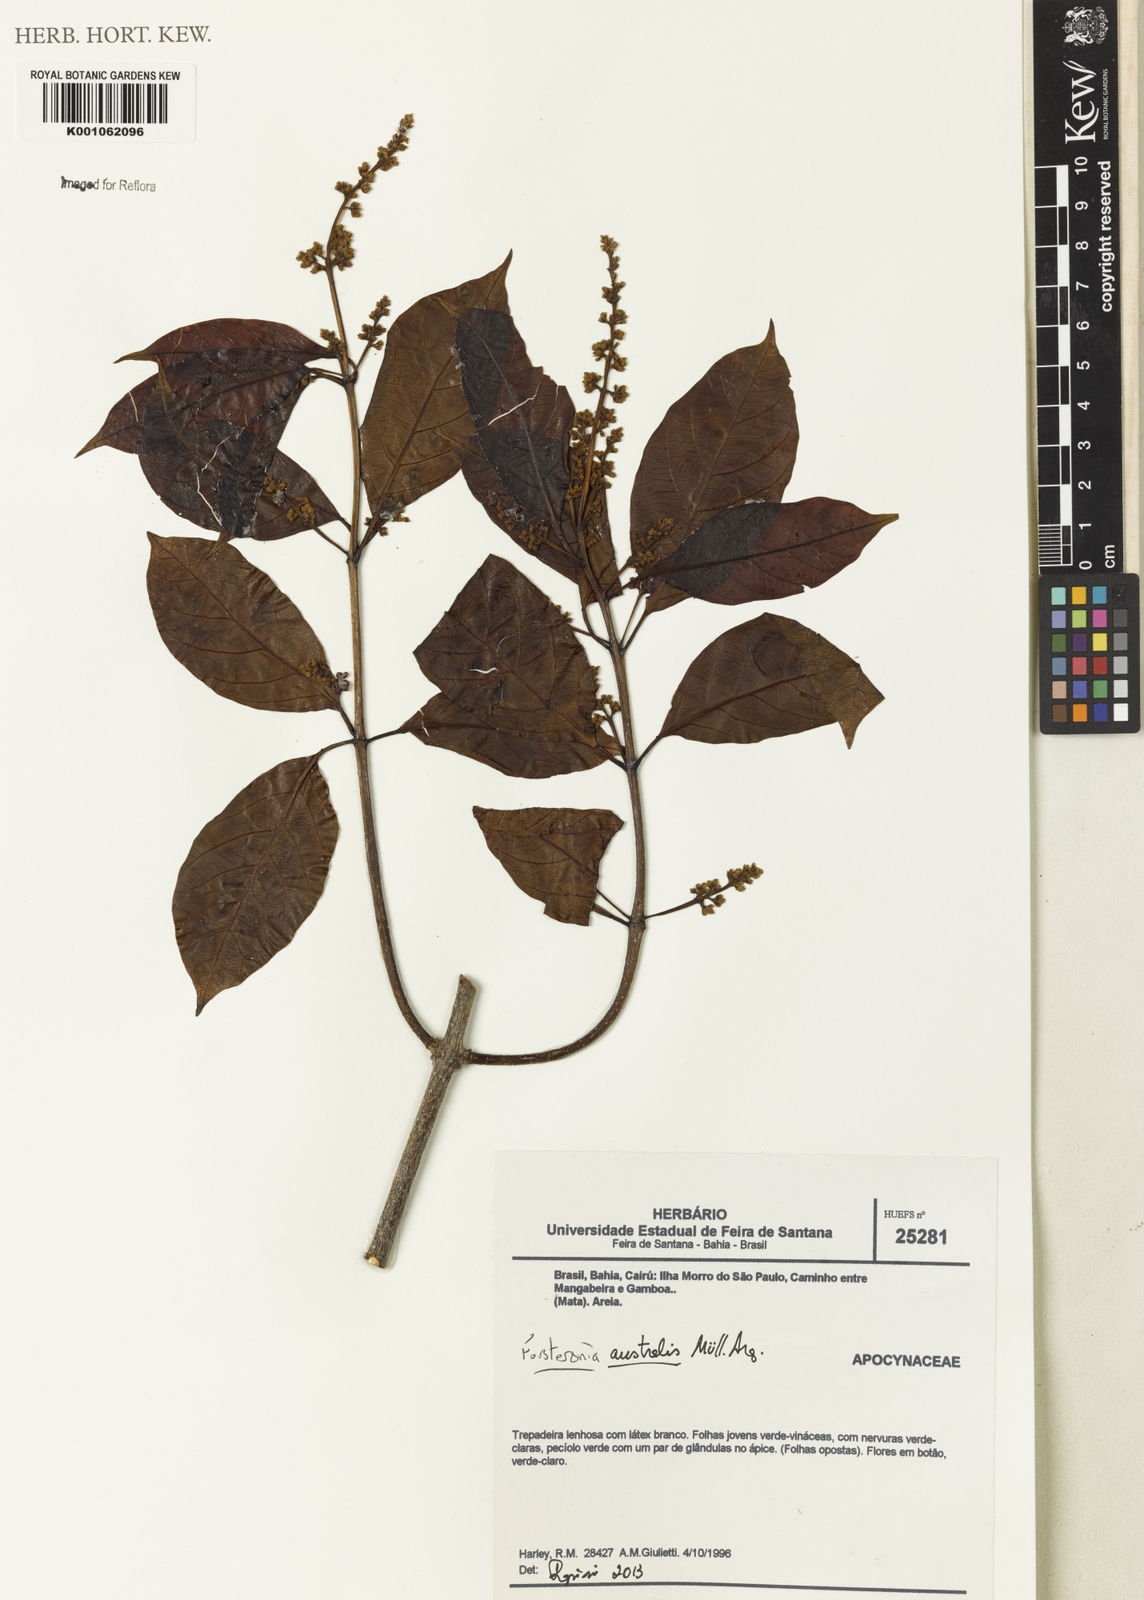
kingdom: Plantae
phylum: Tracheophyta
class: Magnoliopsida
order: Gentianales
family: Apocynaceae
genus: Forsteronia
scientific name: Forsteronia
